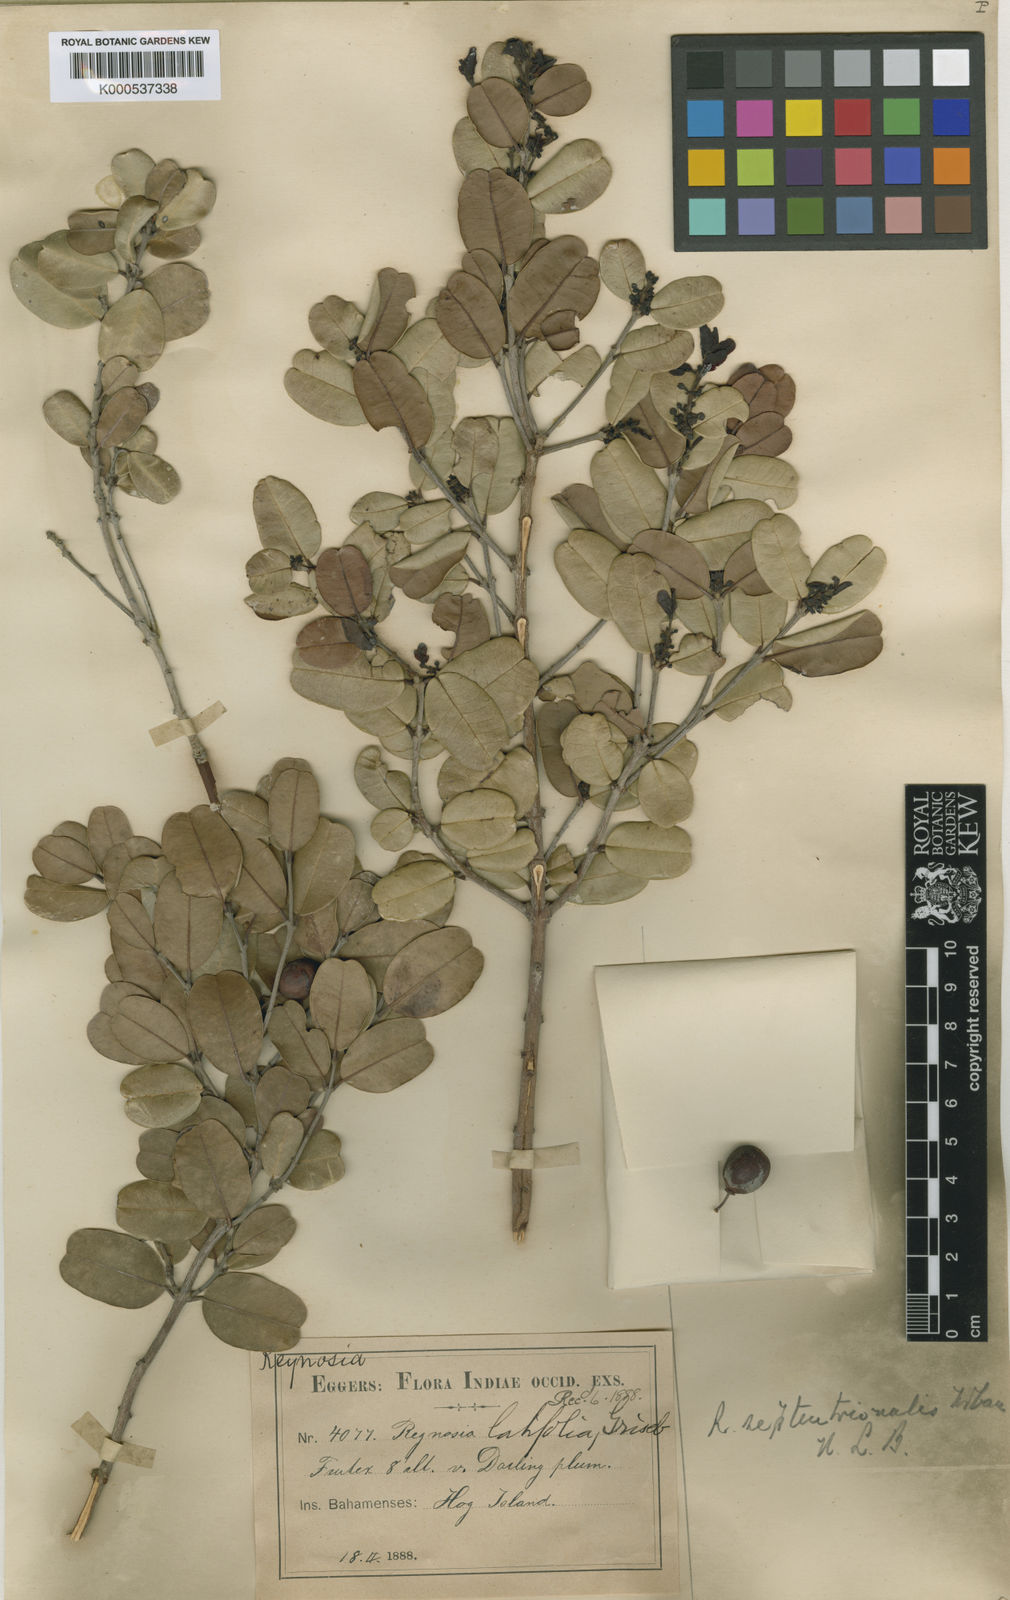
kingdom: Plantae
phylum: Tracheophyta
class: Magnoliopsida
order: Rosales
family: Rhamnaceae
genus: Reynosia
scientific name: Reynosia septentrionalis
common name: Red ironwood
